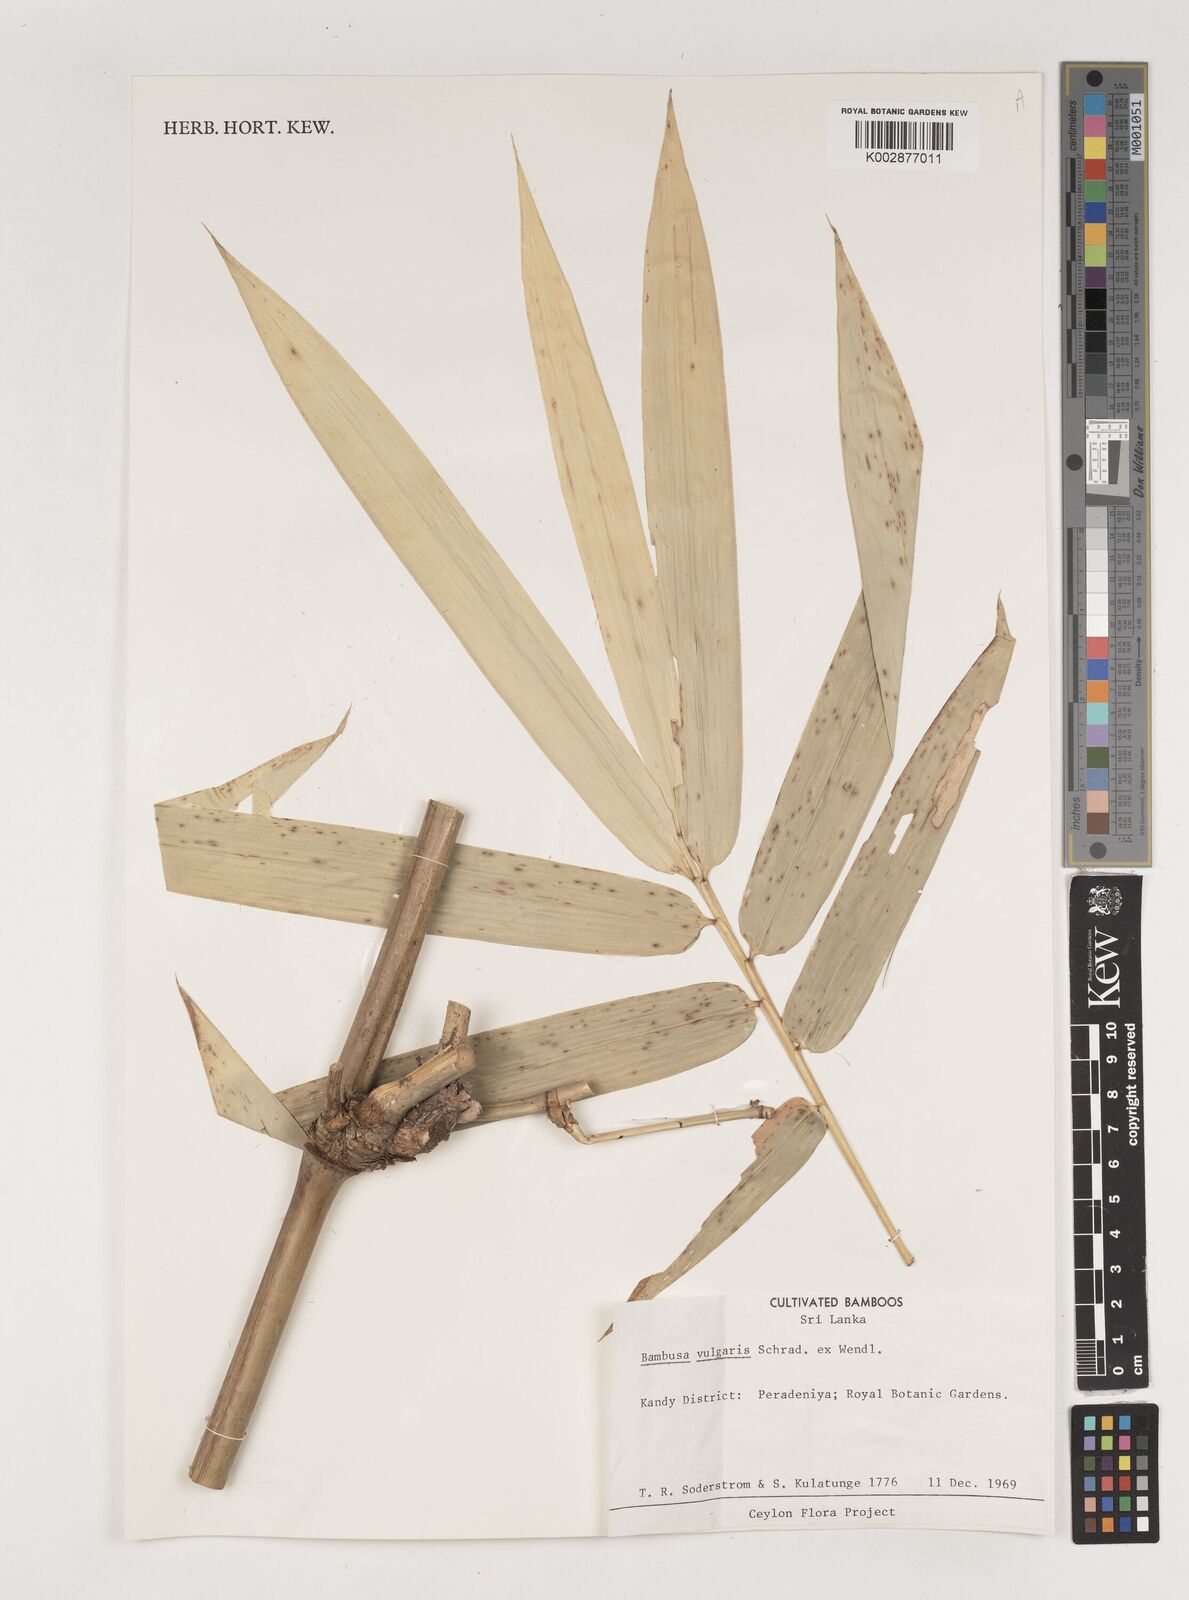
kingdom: Plantae
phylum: Tracheophyta
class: Liliopsida
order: Poales
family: Poaceae
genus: Bambusa
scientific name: Bambusa vulgaris
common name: Common bamboo
